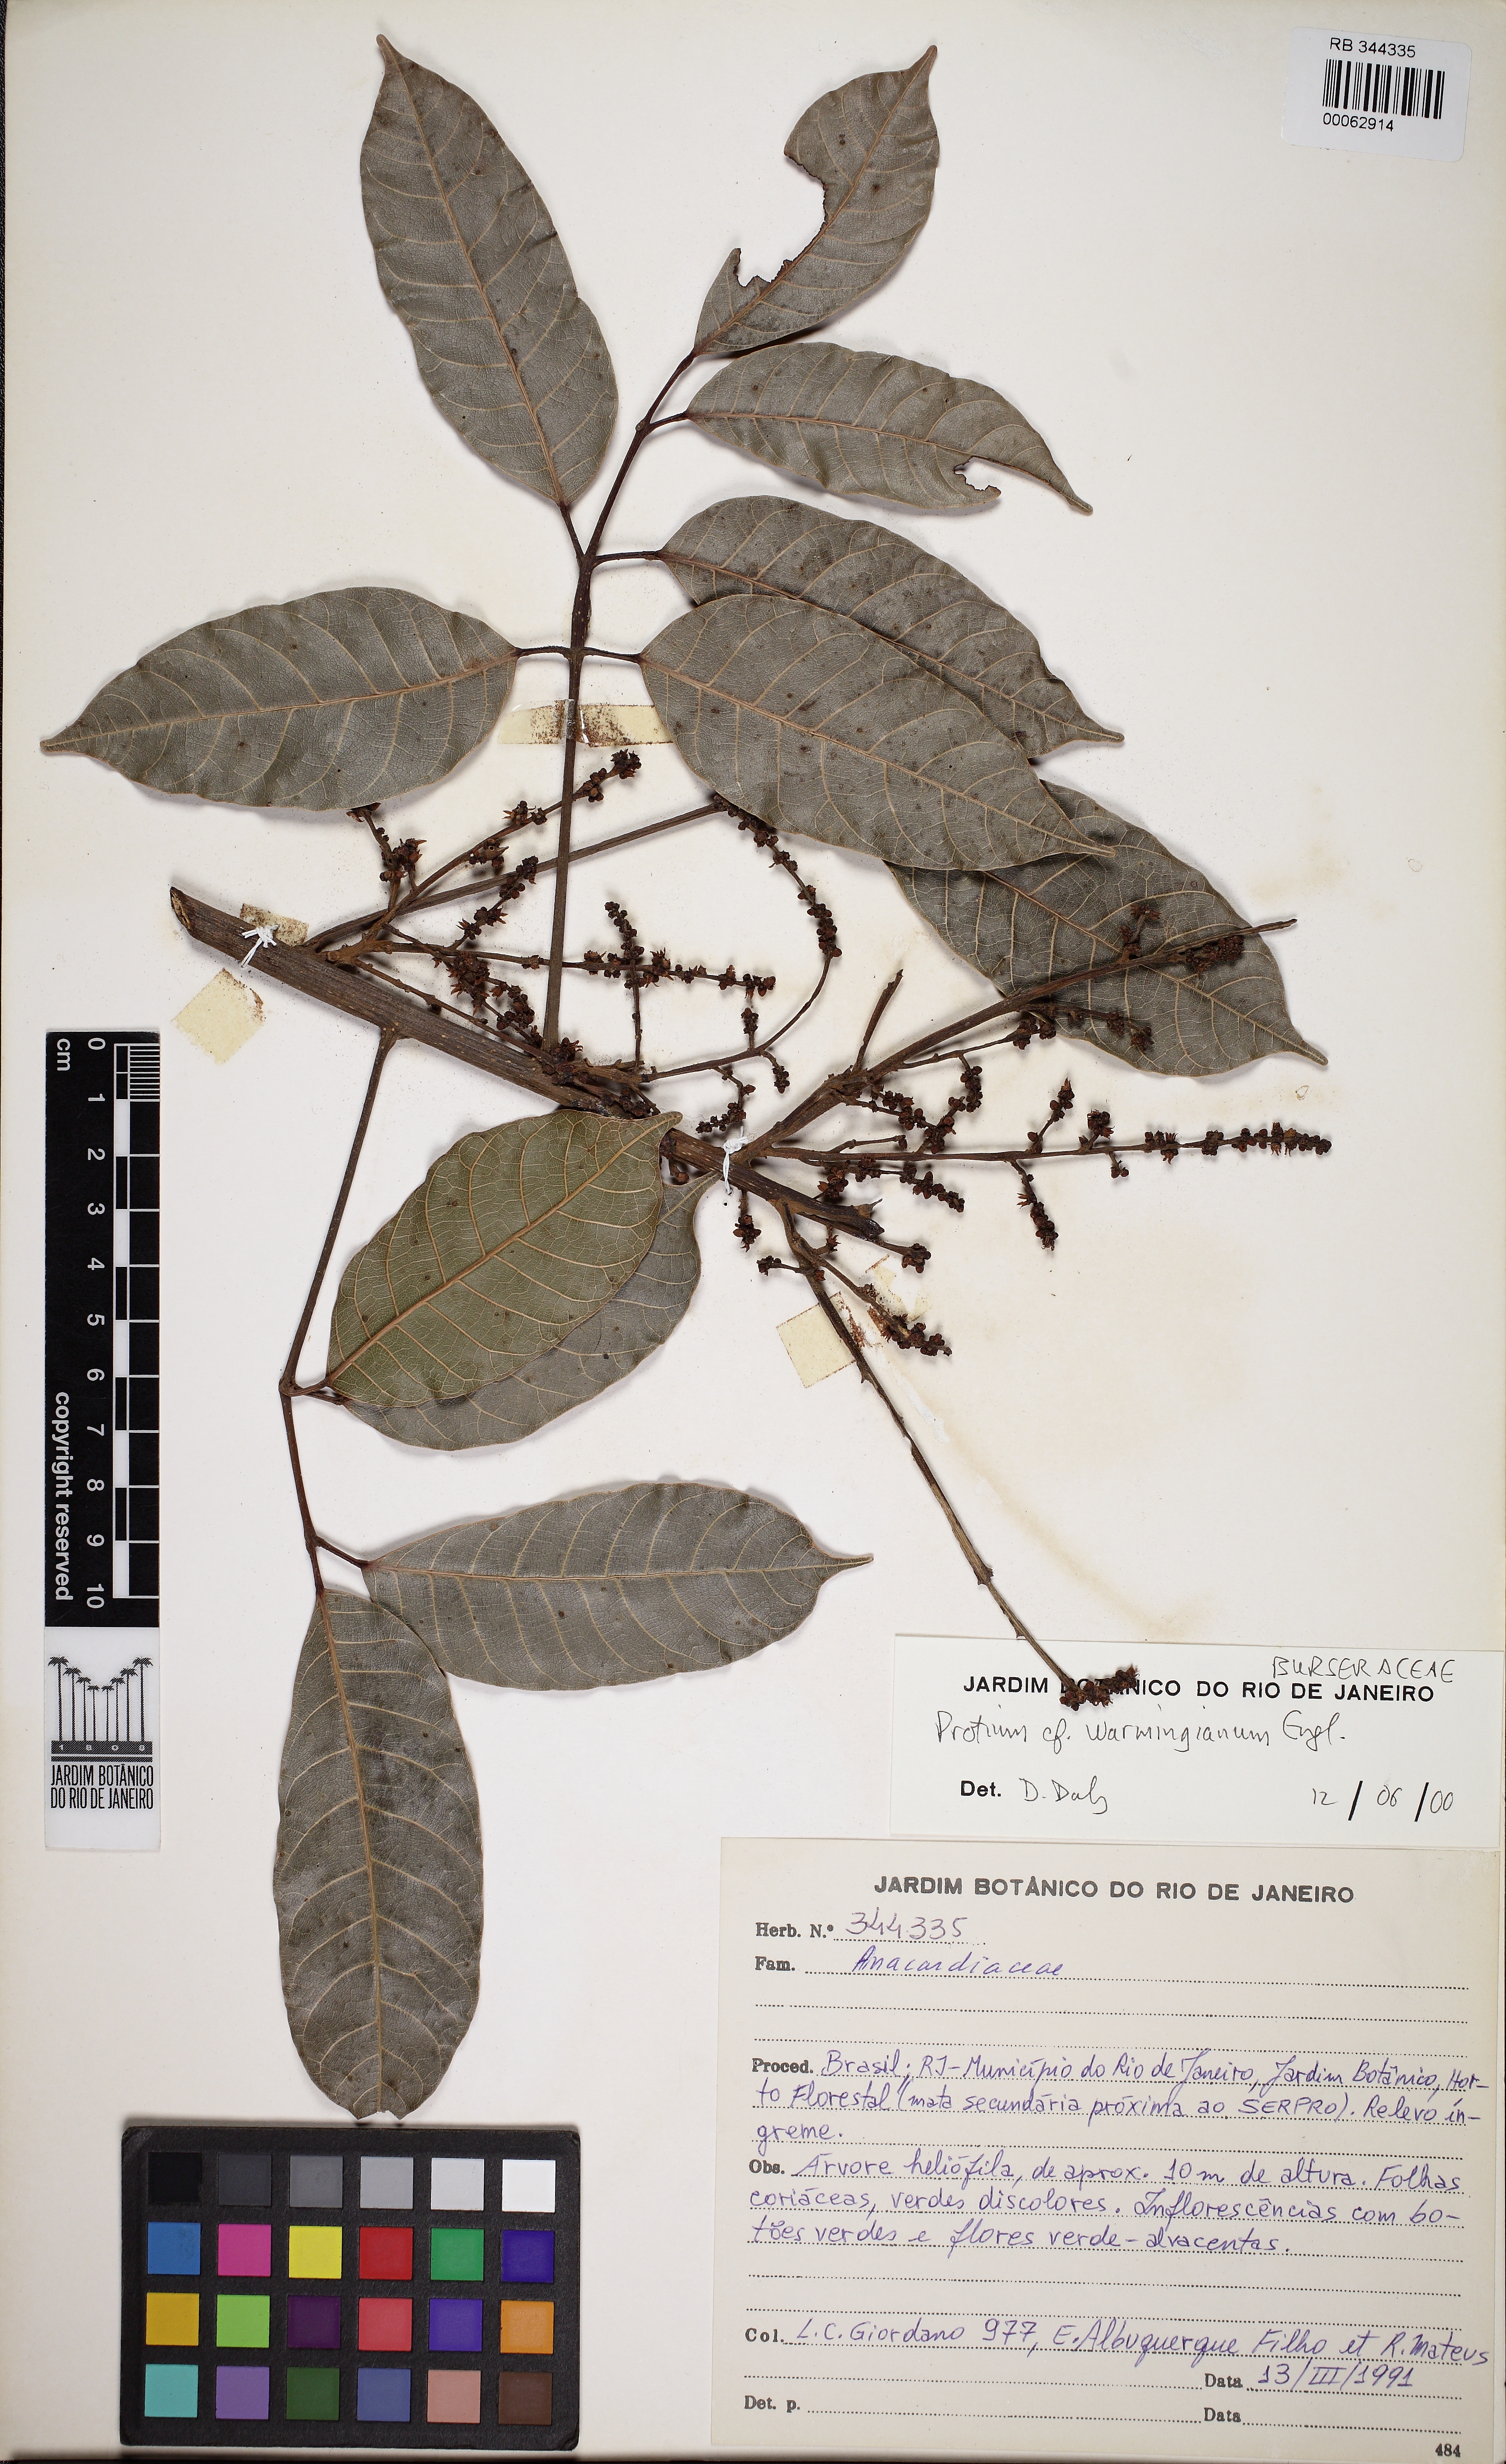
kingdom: Plantae
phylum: Tracheophyta
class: Magnoliopsida
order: Sapindales
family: Burseraceae
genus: Protium
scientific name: Protium warmingianum
